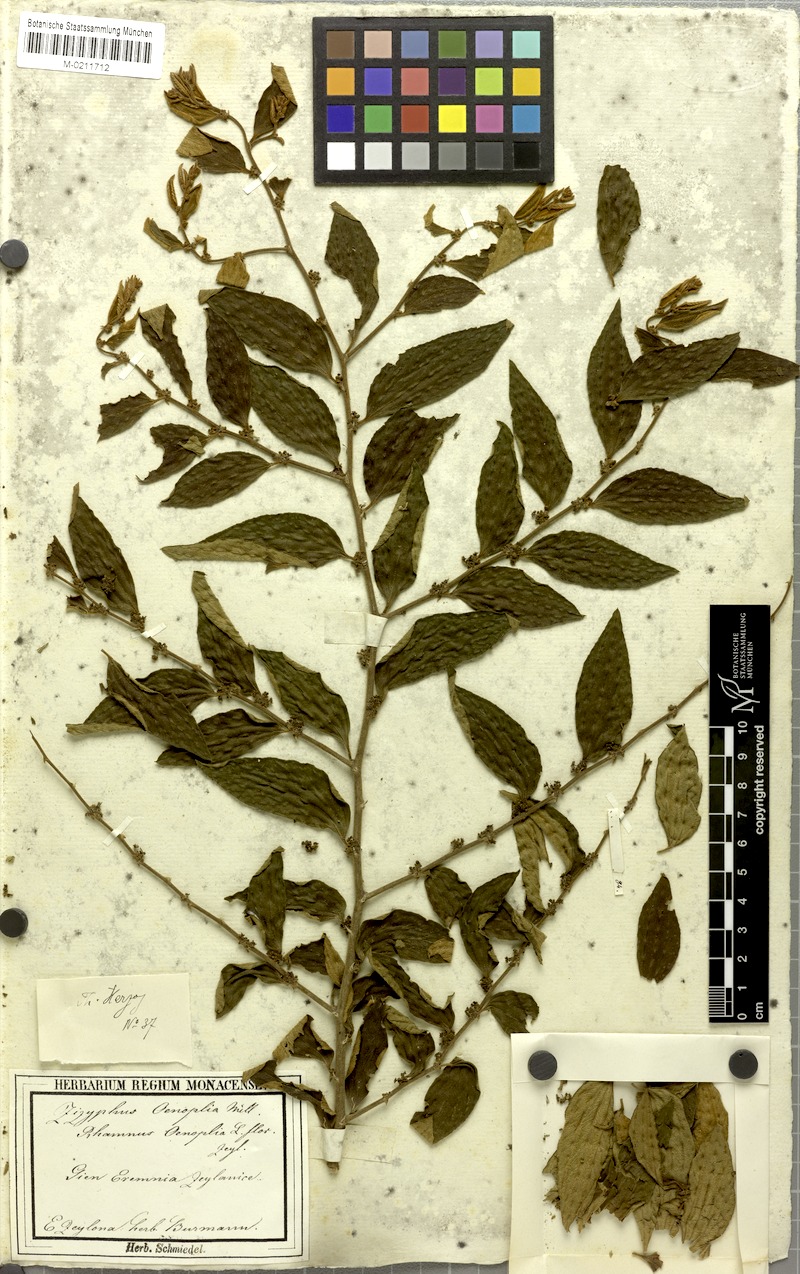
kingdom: Plantae
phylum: Tracheophyta
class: Magnoliopsida
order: Rosales
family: Rhamnaceae
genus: Ziziphus
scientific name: Ziziphus oenopolia
